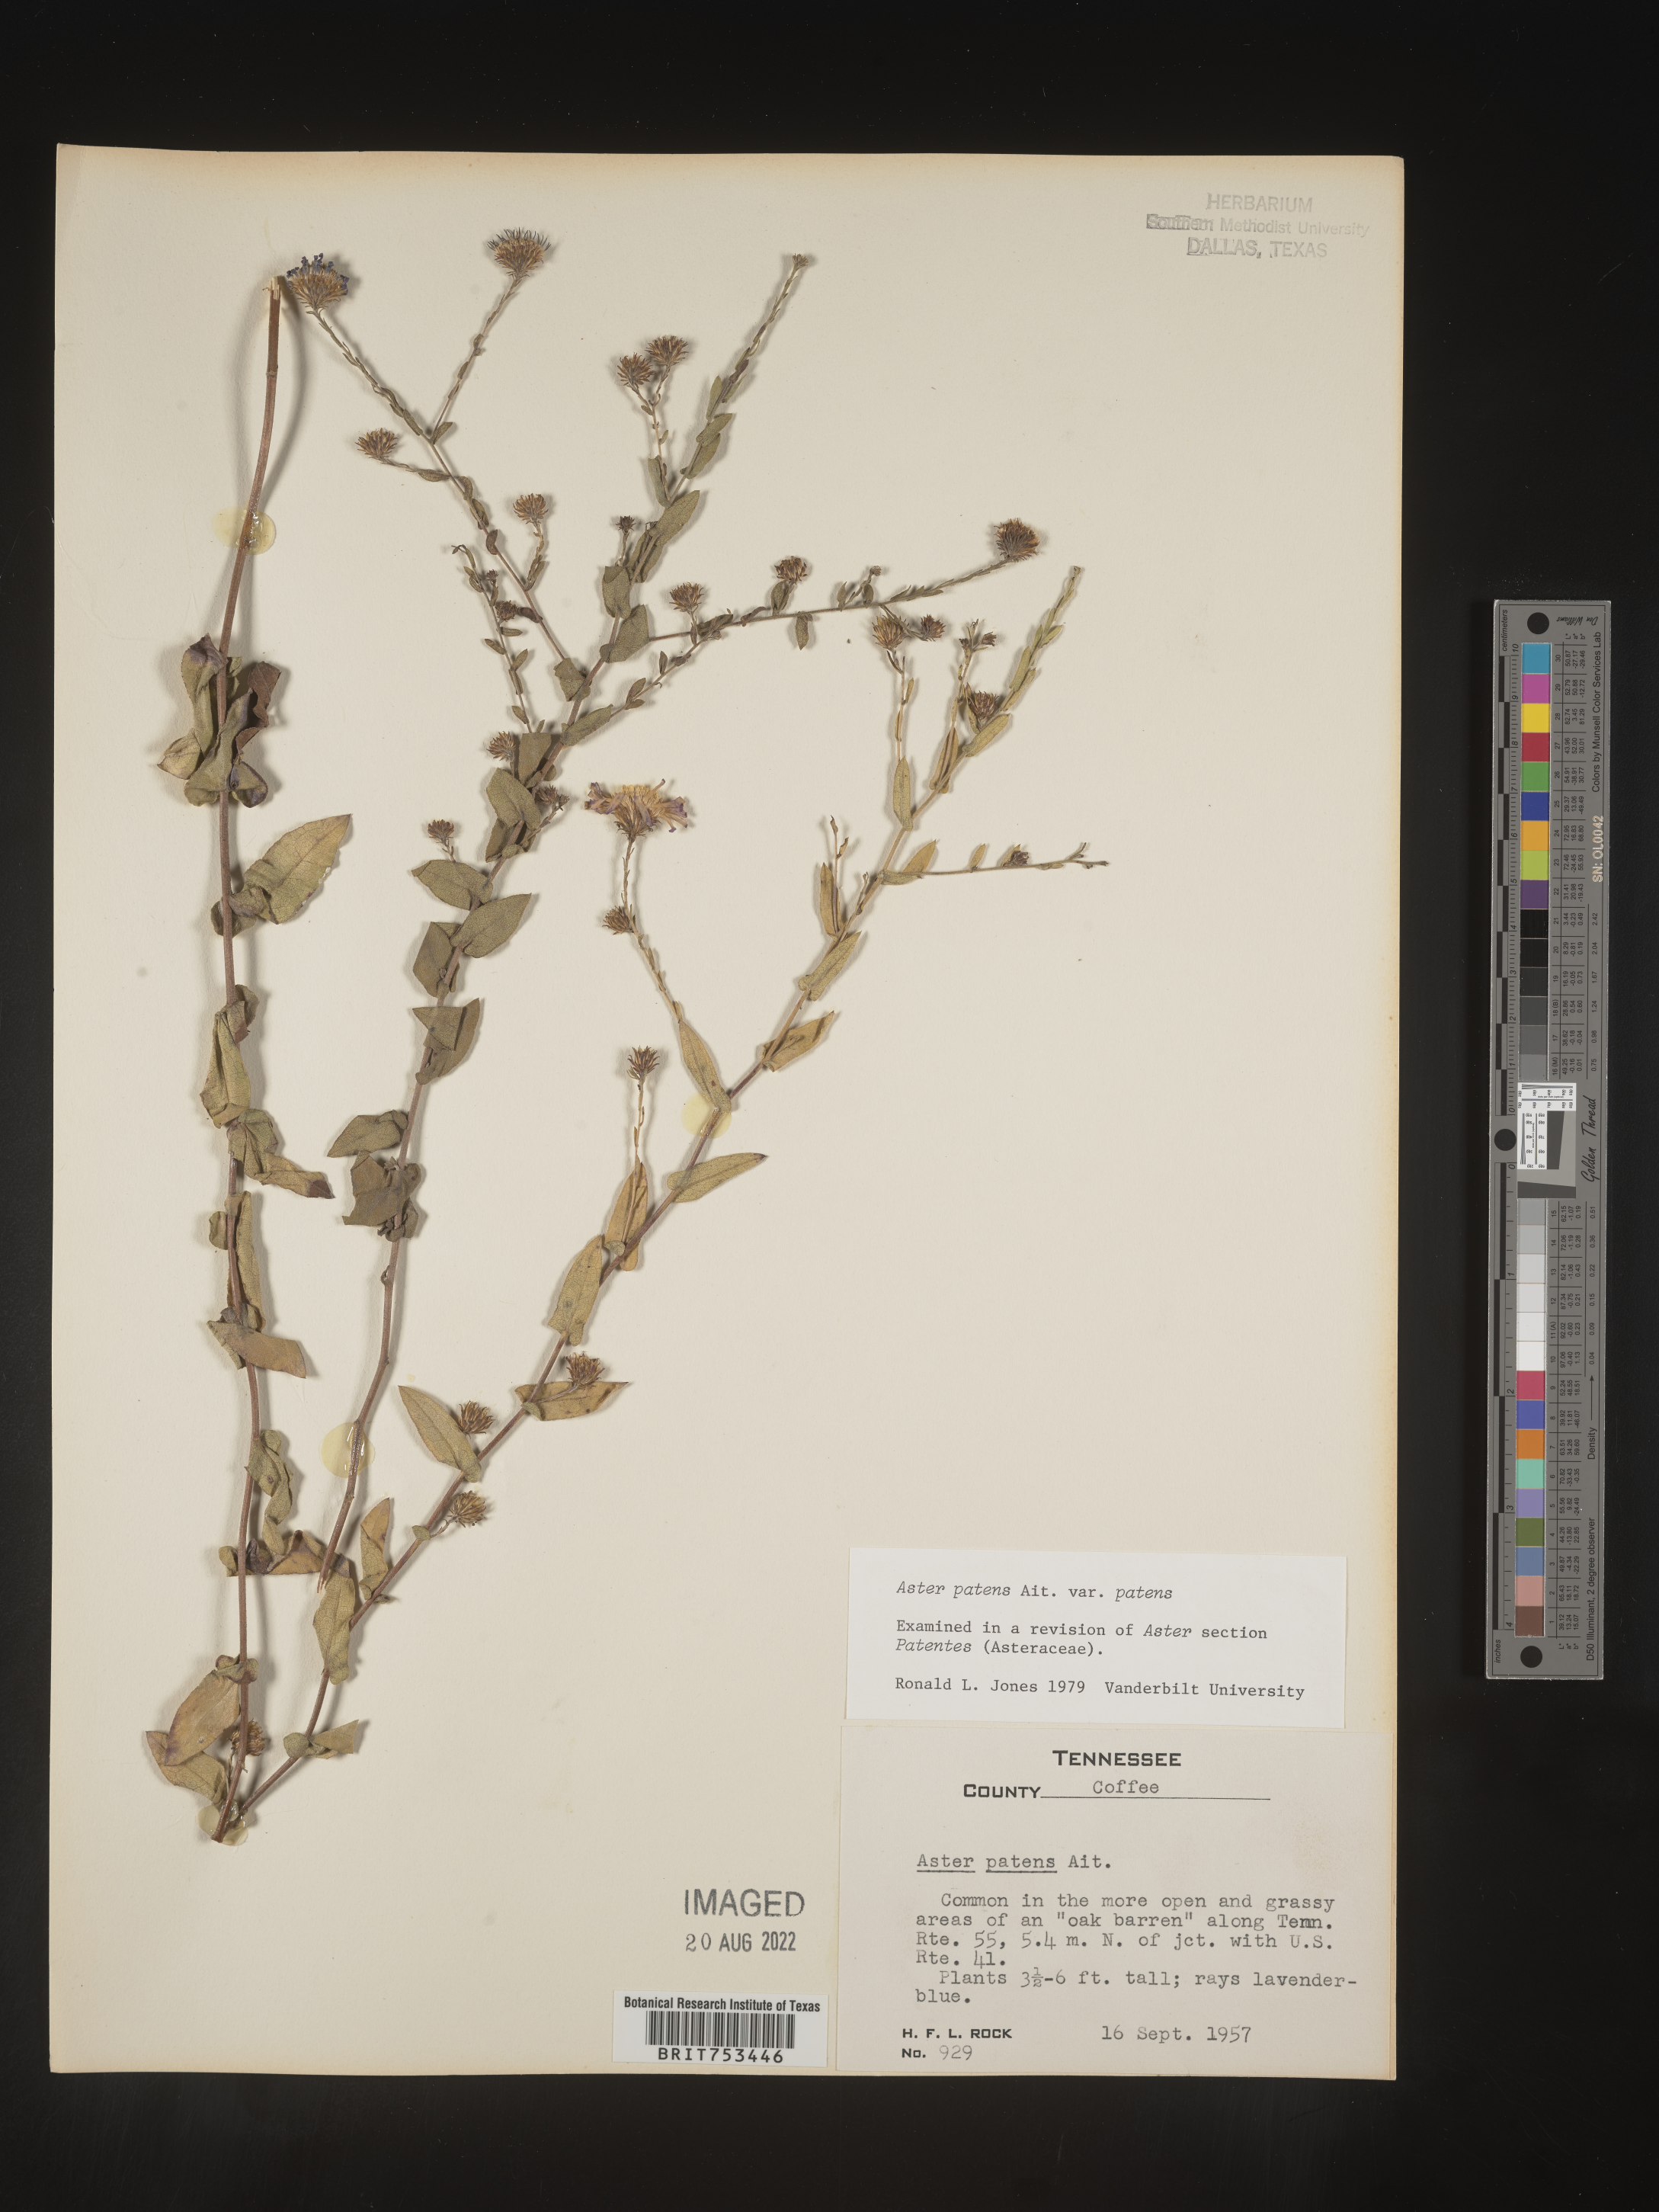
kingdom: Plantae
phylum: Tracheophyta
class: Magnoliopsida
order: Asterales
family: Asteraceae
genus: Symphyotrichum
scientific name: Symphyotrichum patens
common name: Late purple aster
